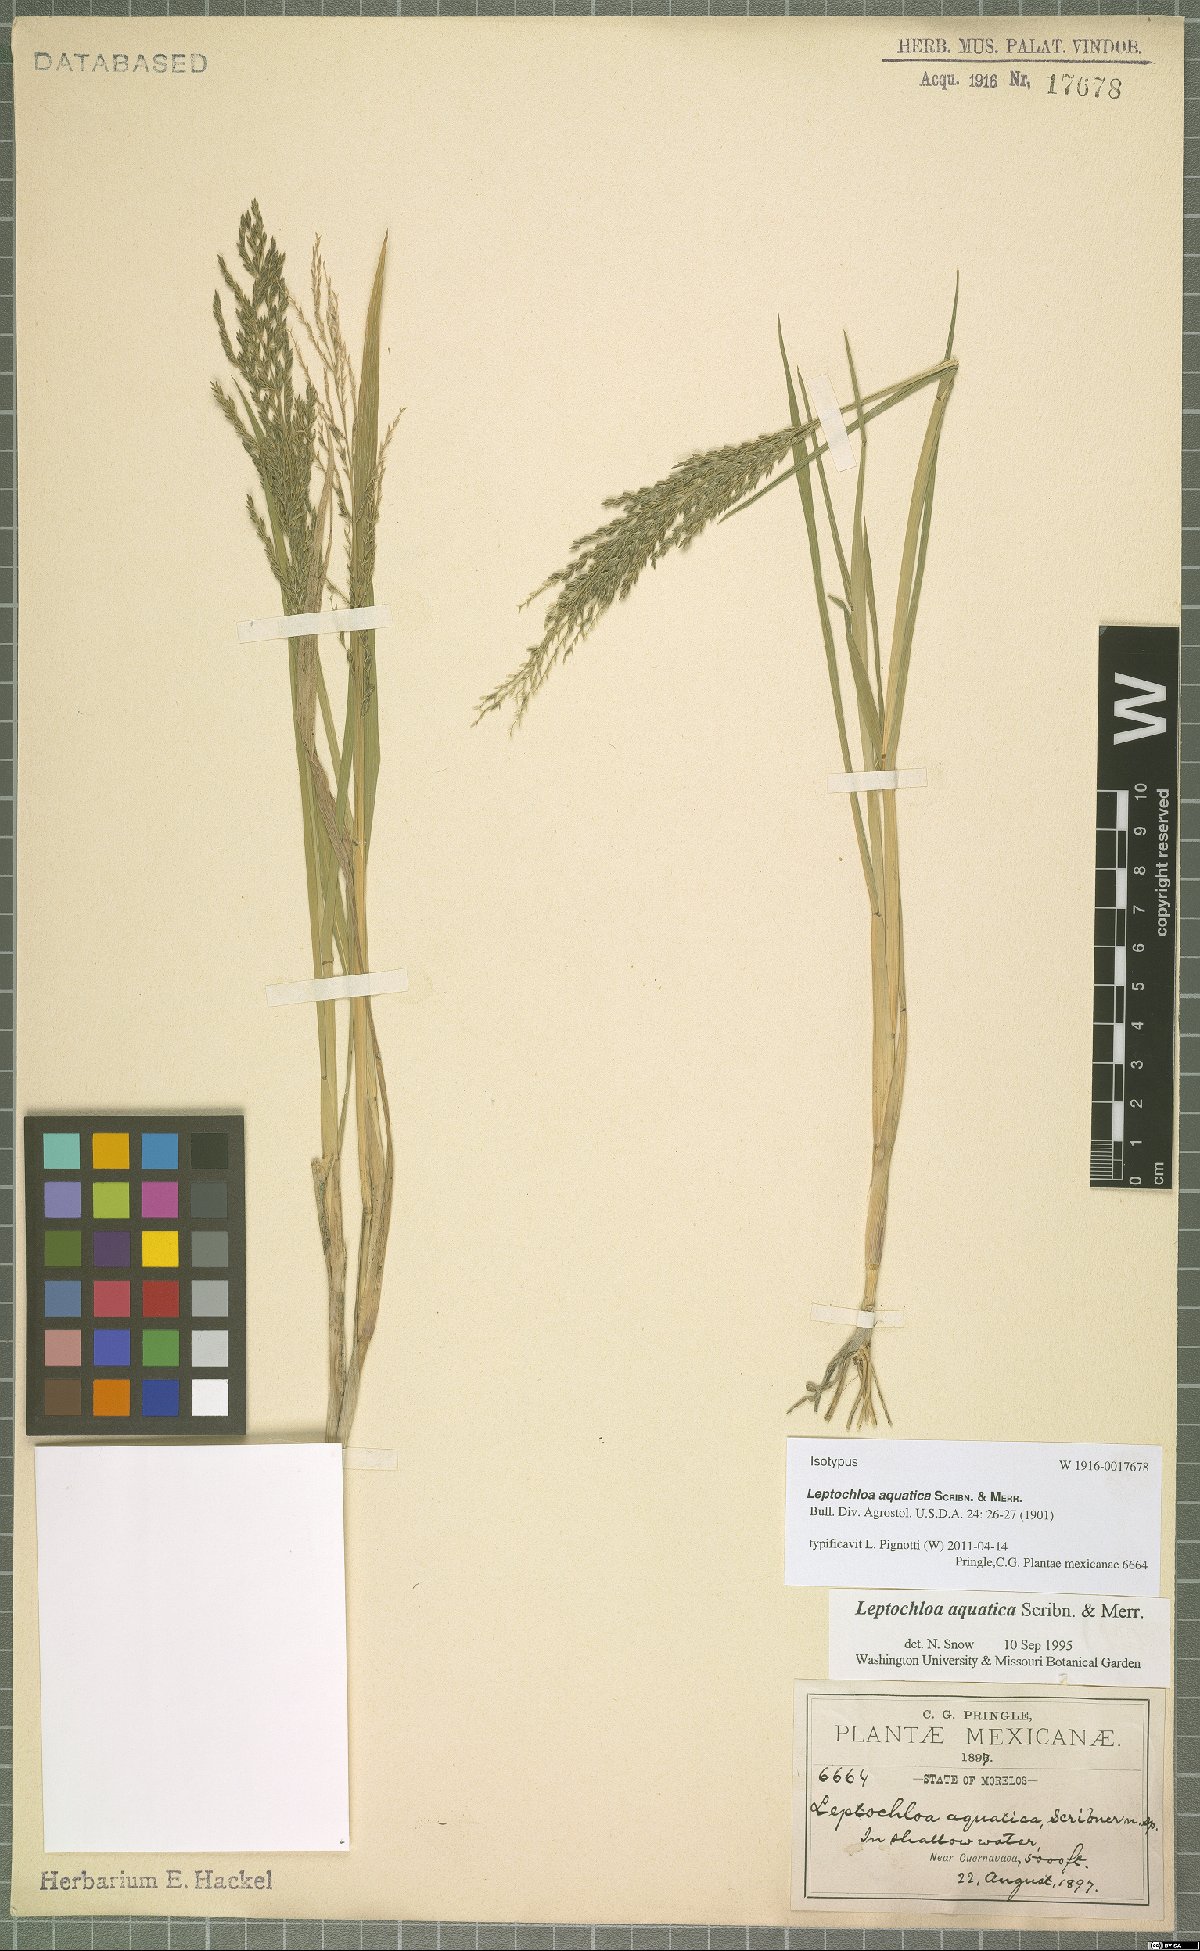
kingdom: Plantae
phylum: Tracheophyta
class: Liliopsida
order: Poales
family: Poaceae
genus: Leptochloa
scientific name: Leptochloa aquatica
